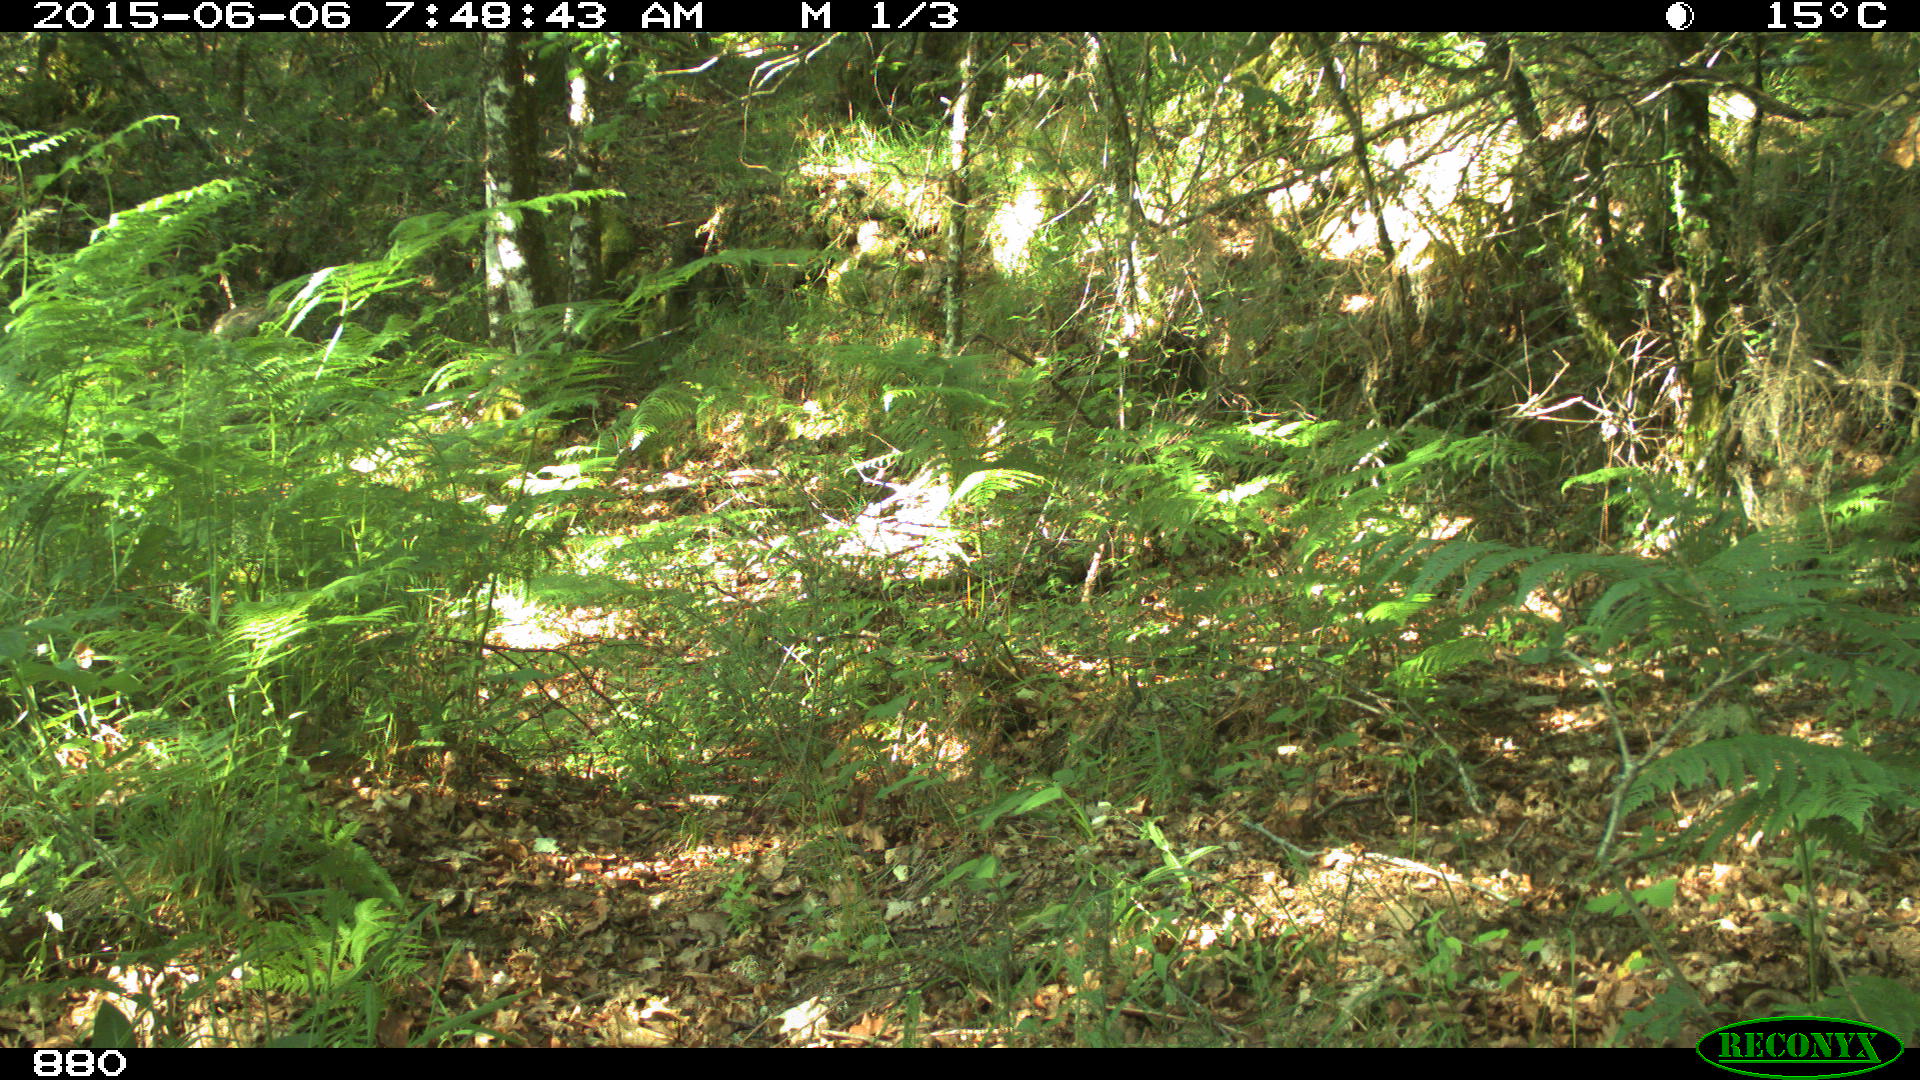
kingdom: Animalia
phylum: Chordata
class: Mammalia
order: Artiodactyla
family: Cervidae
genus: Capreolus
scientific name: Capreolus capreolus
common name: Western roe deer
